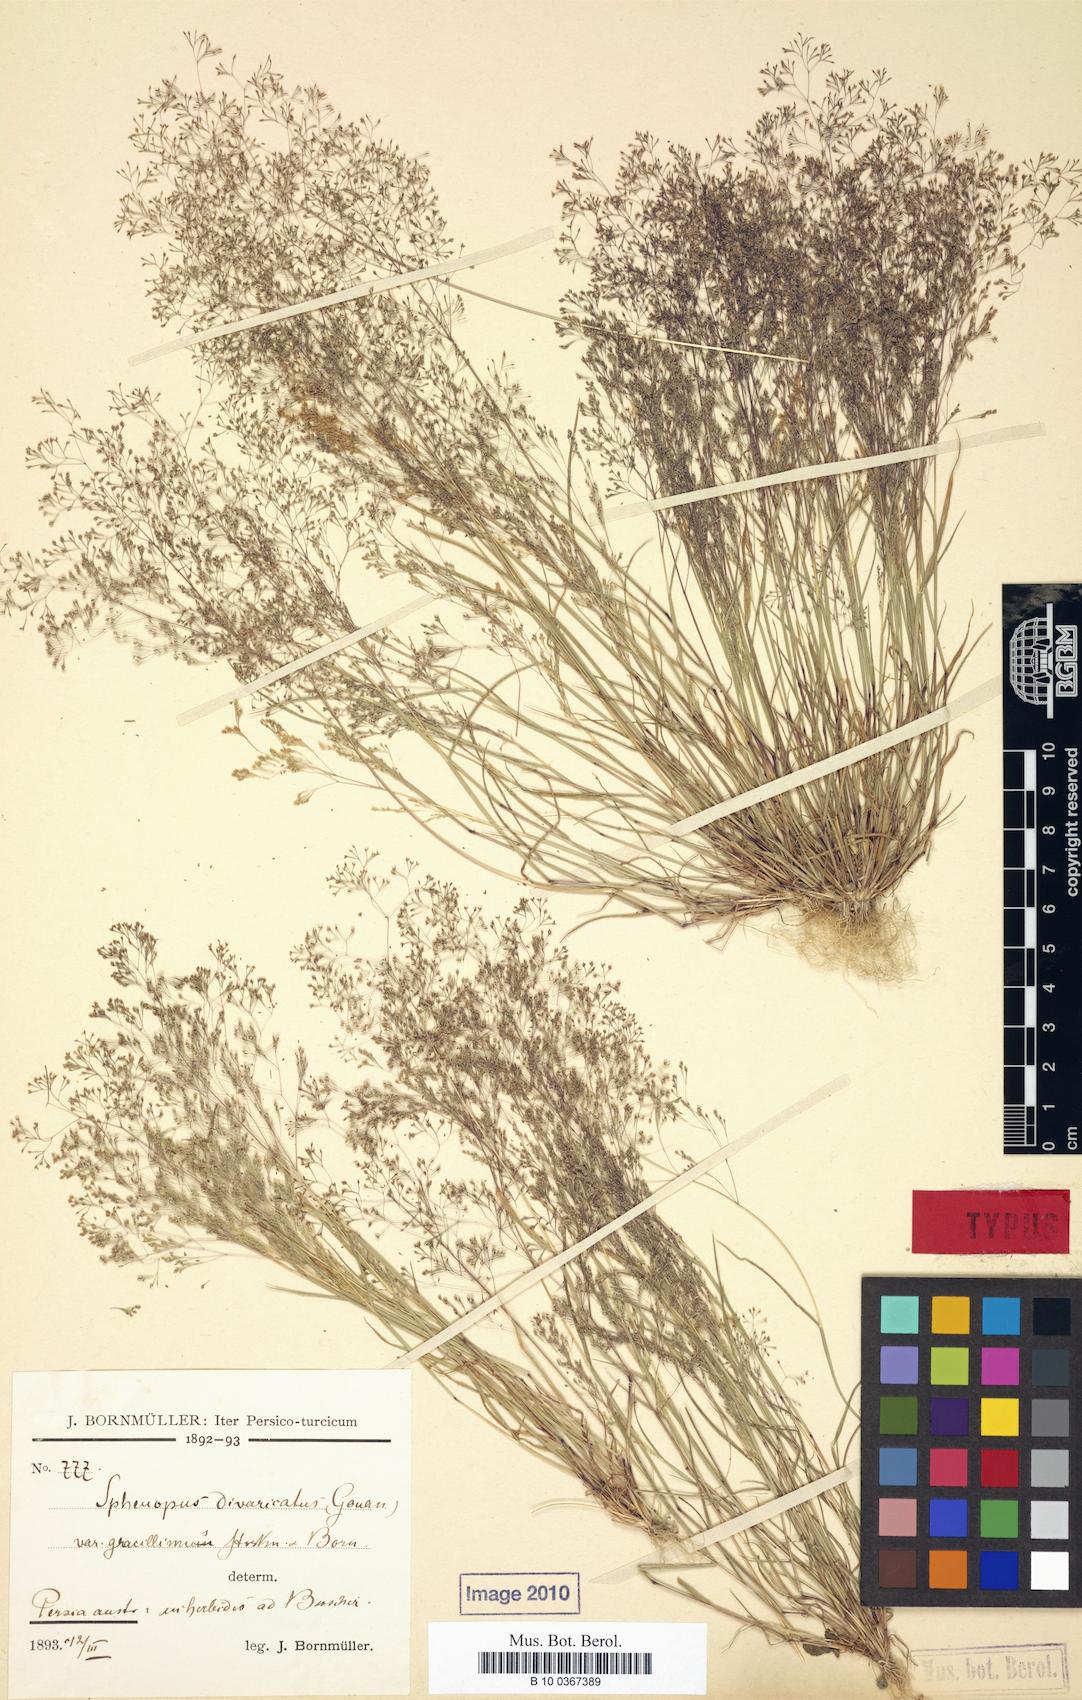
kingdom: Plantae
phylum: Tracheophyta
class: Liliopsida
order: Poales
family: Poaceae
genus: Sphenopus
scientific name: Sphenopus divaricatus
